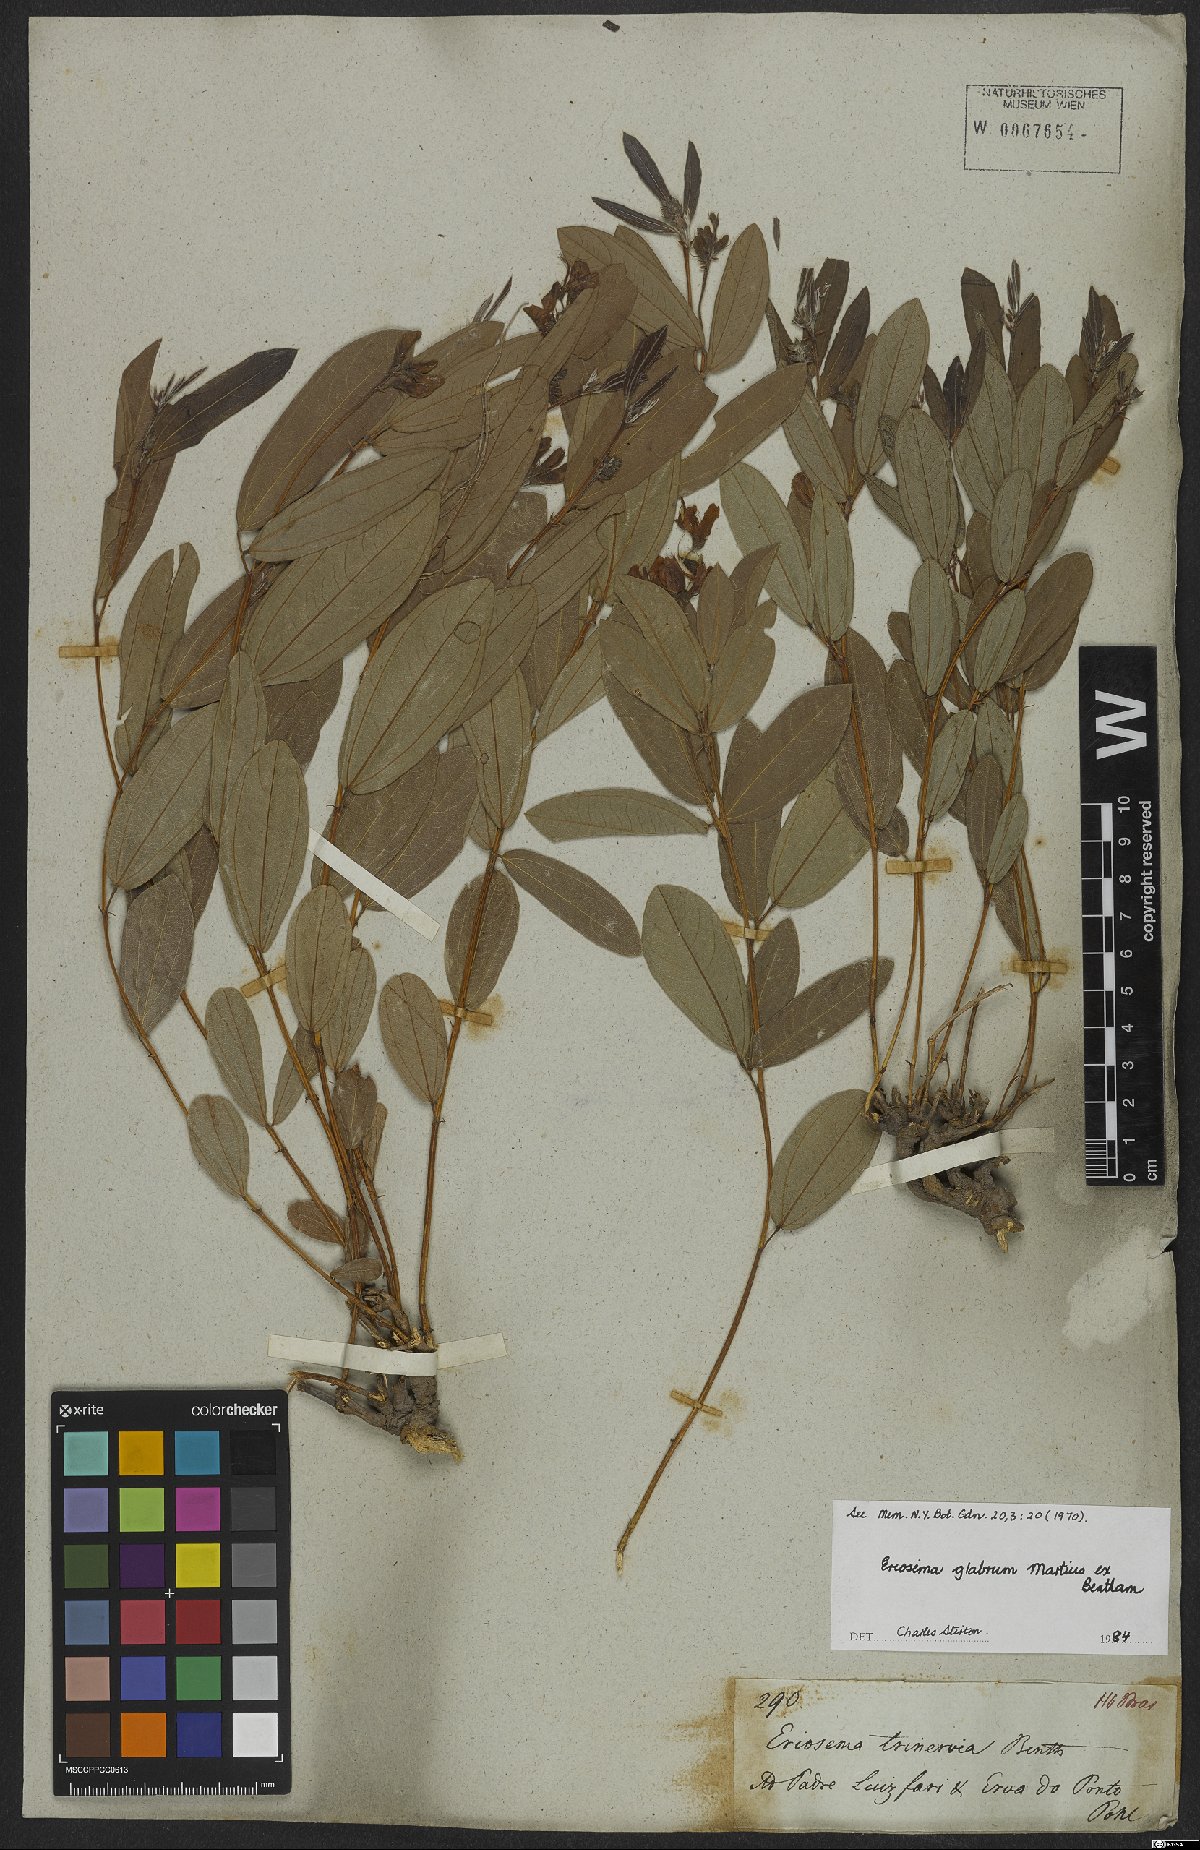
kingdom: Plantae
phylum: Tracheophyta
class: Magnoliopsida
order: Fabales
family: Fabaceae
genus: Eriosema
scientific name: Eriosema glabrum
